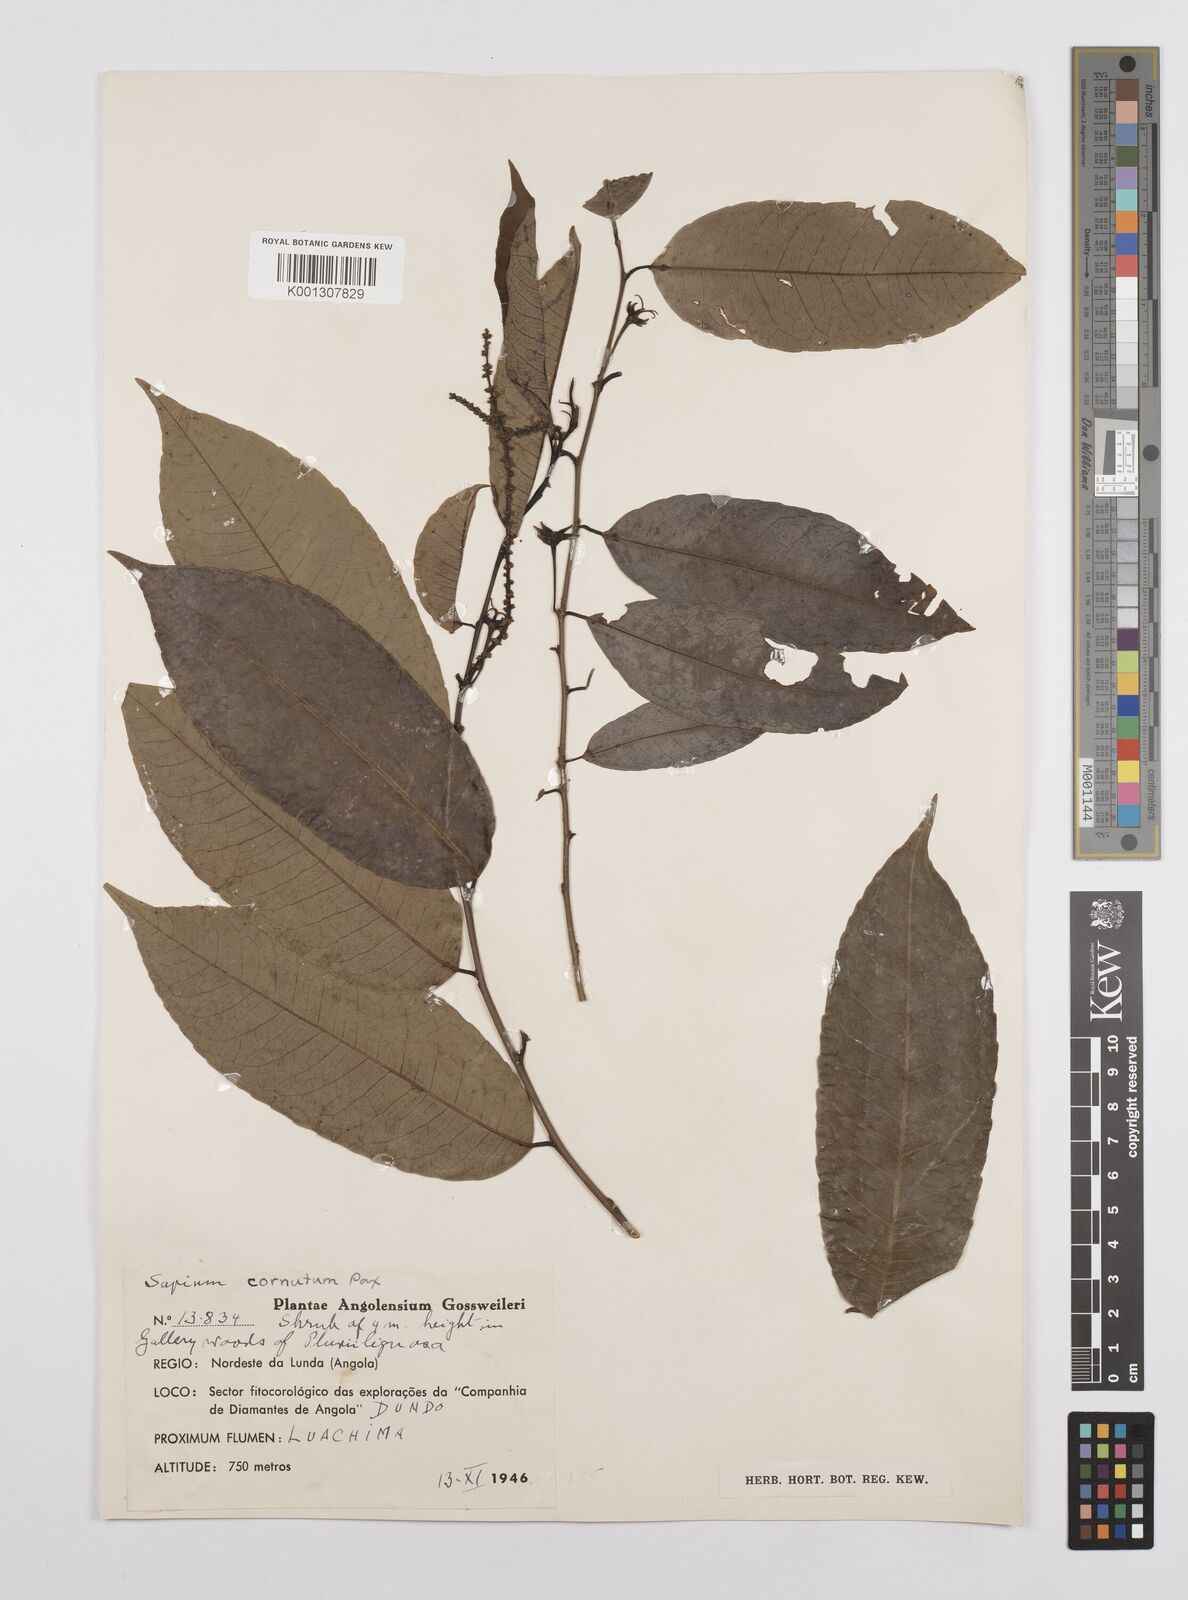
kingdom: Plantae
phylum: Tracheophyta
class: Magnoliopsida
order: Malpighiales
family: Euphorbiaceae
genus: Sclerocroton
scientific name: Sclerocroton cornutus
